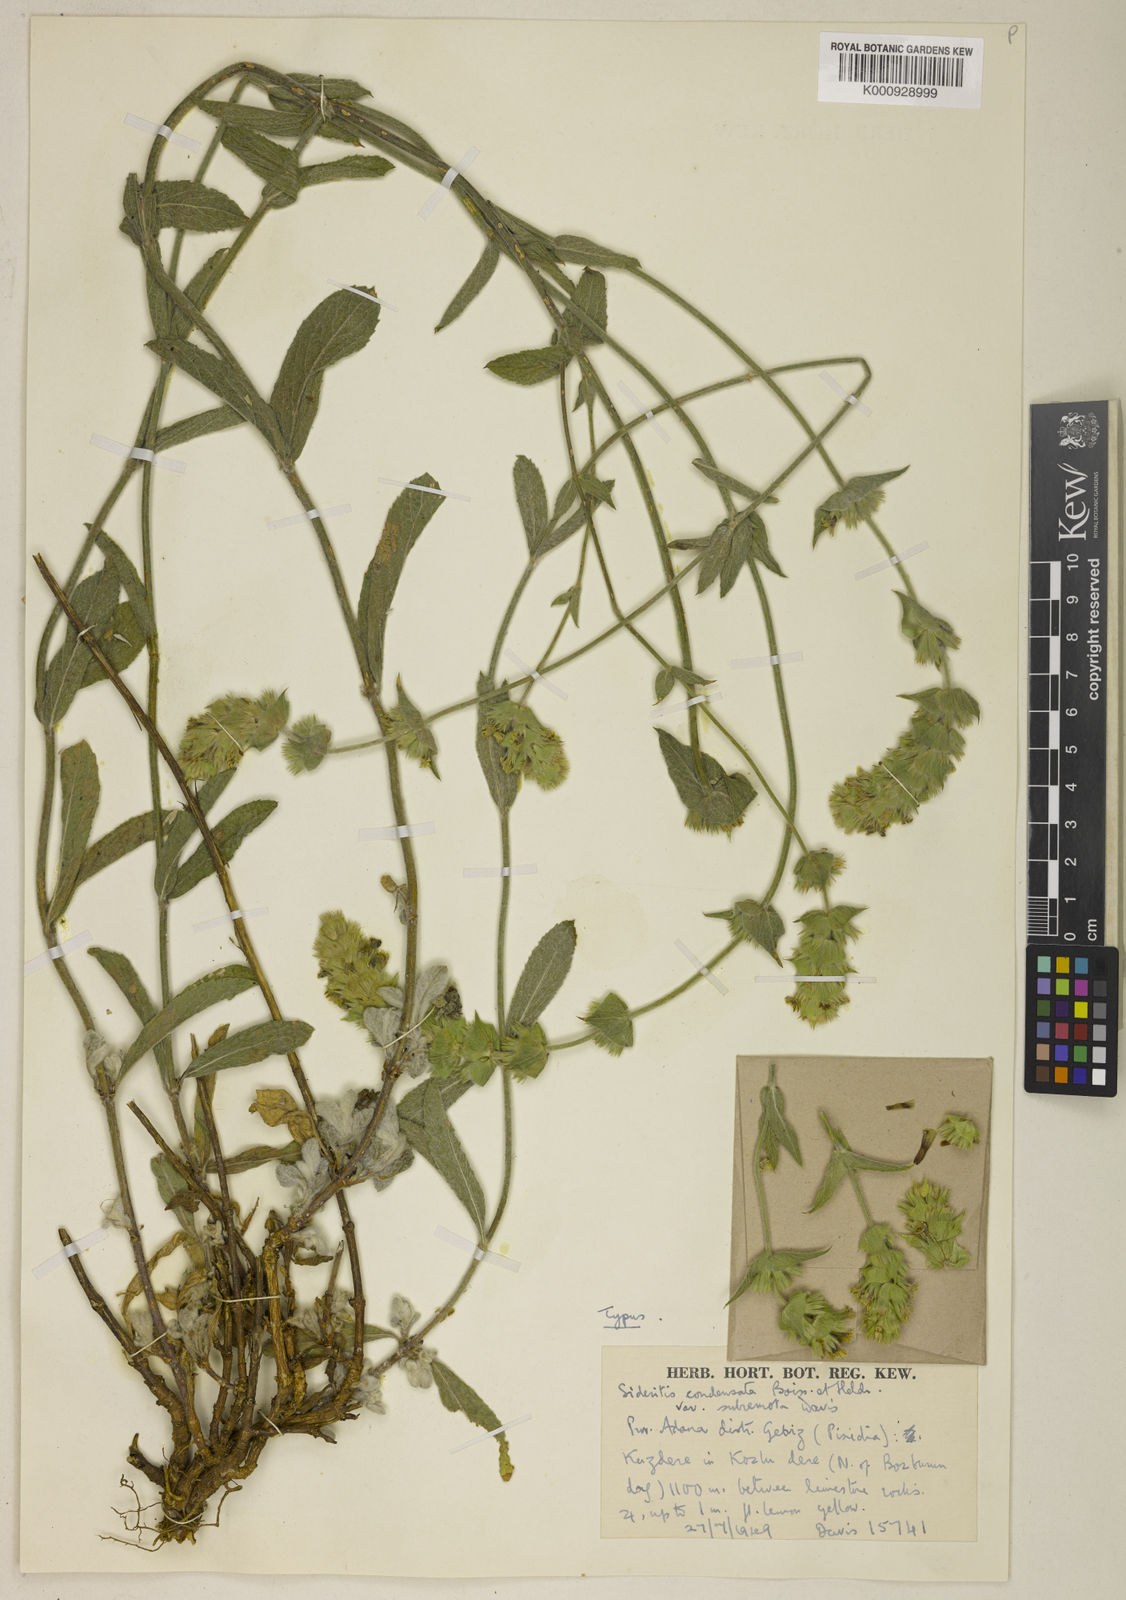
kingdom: Plantae
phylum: Tracheophyta
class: Magnoliopsida
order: Lamiales
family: Lamiaceae
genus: Sideritis
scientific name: Sideritis condensata
